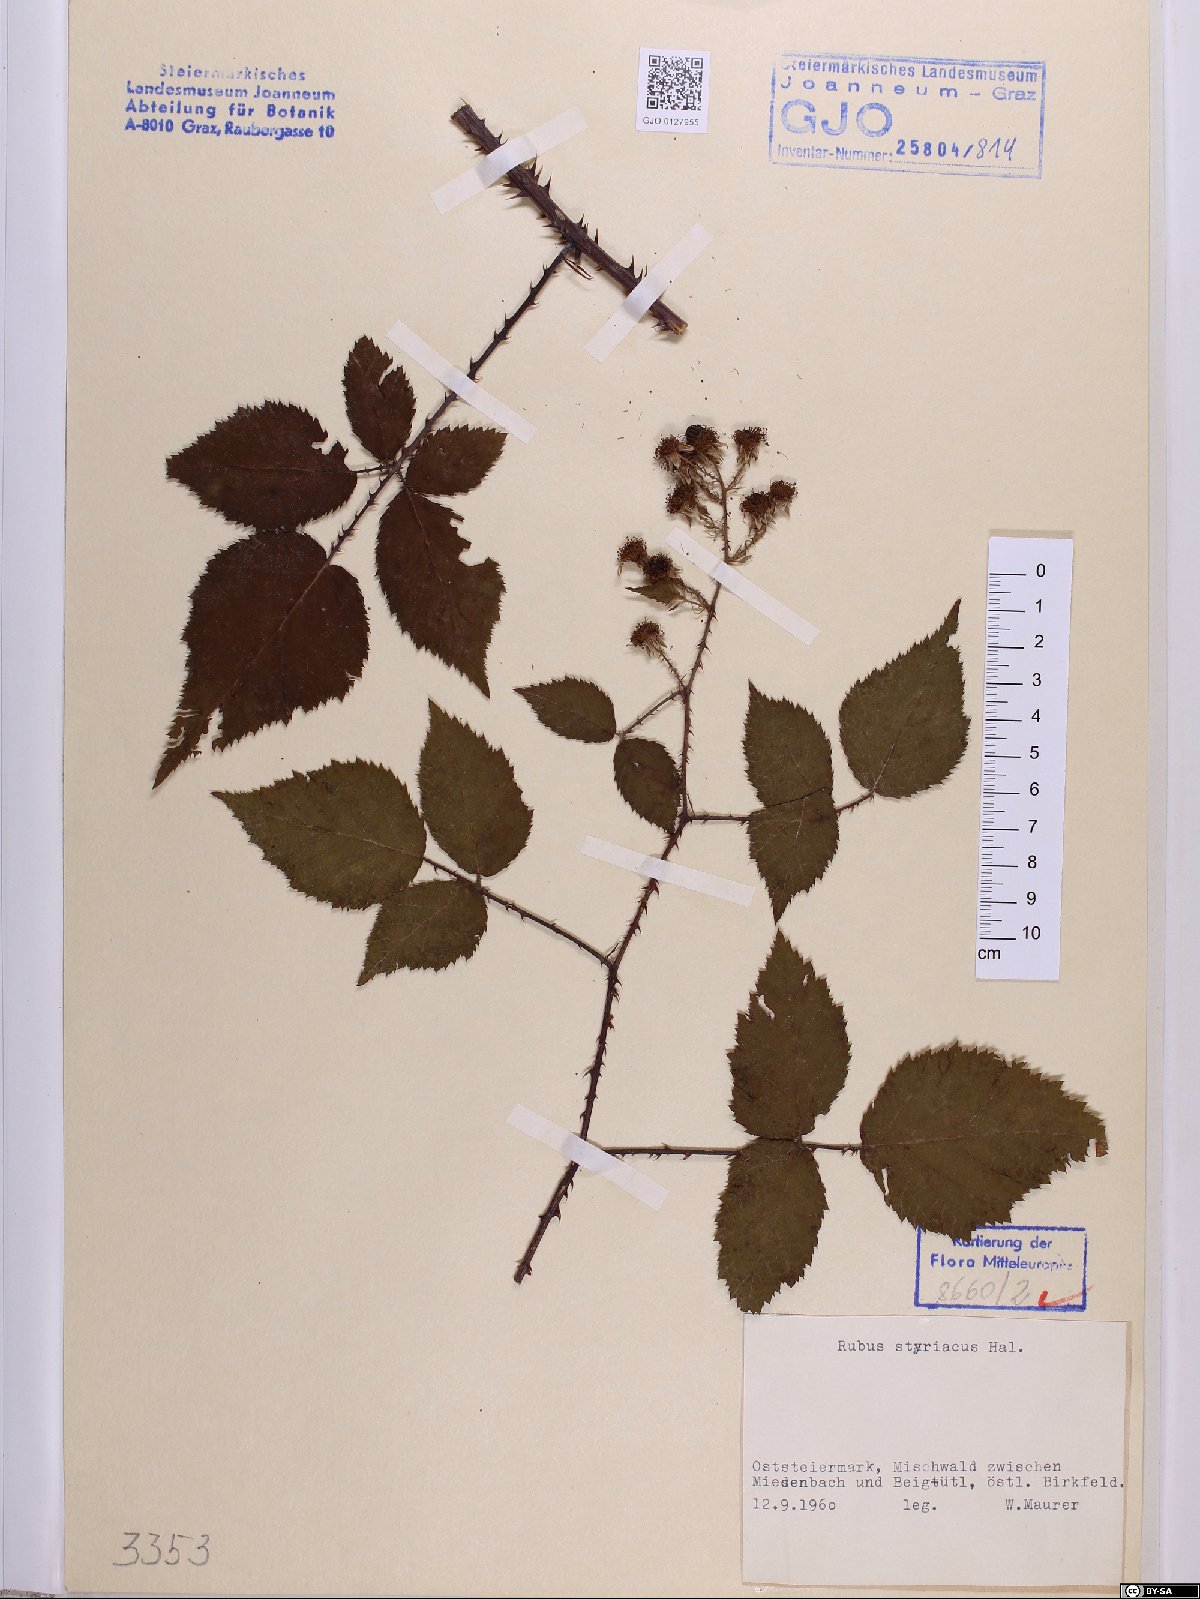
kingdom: Plantae
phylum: Tracheophyta
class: Magnoliopsida
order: Rosales
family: Rosaceae
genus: Rubus
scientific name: Rubus styriacus
